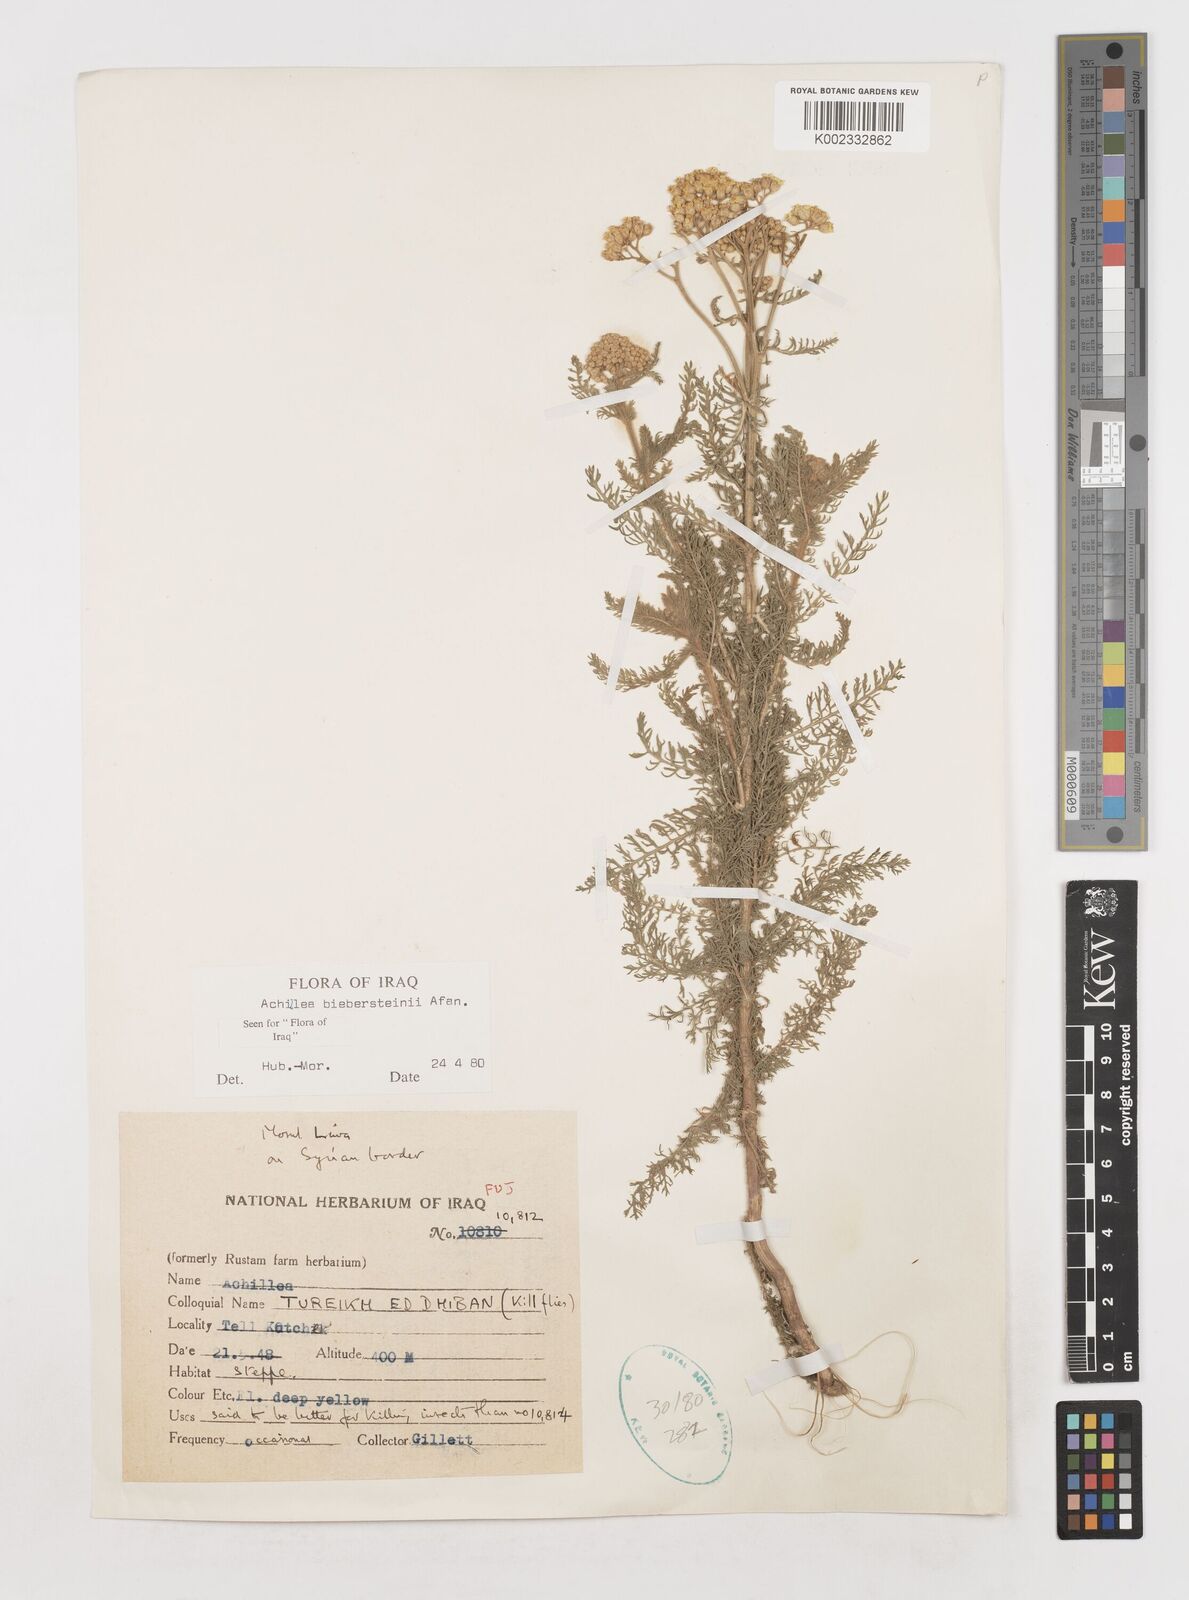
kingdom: Plantae
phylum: Tracheophyta
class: Magnoliopsida
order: Asterales
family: Asteraceae
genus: Achillea
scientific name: Achillea arabica
